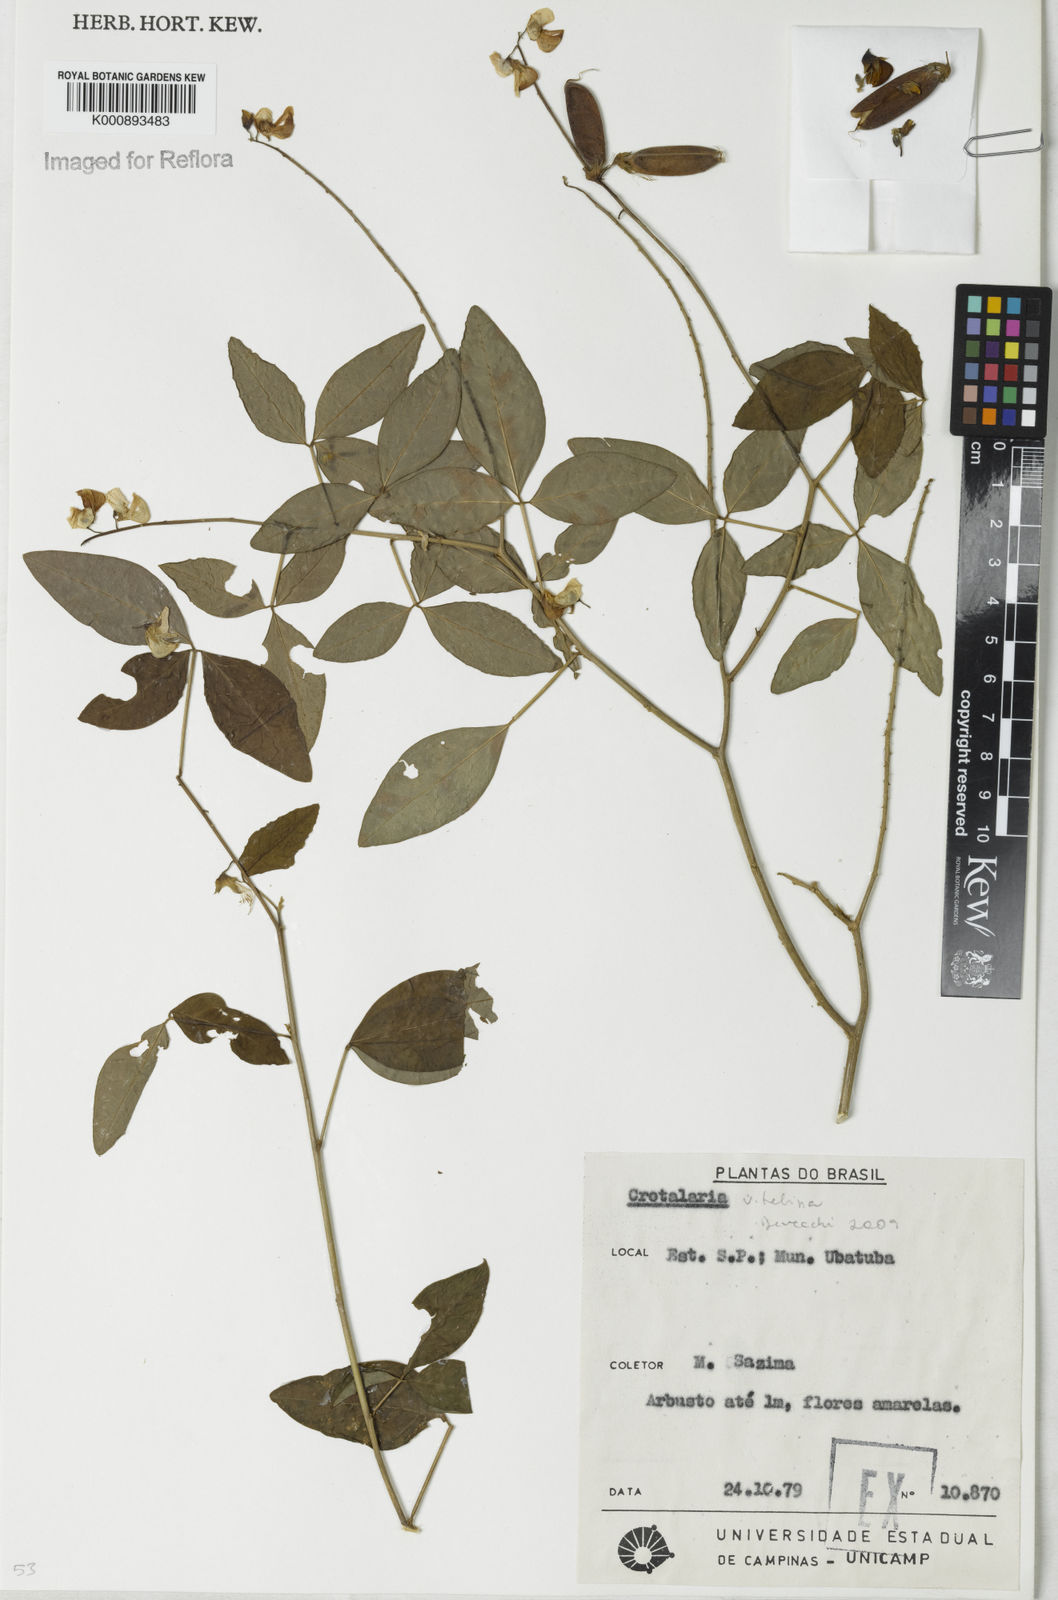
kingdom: Plantae
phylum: Tracheophyta
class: Magnoliopsida
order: Fabales
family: Fabaceae
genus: Crotalaria
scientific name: Crotalaria vitellina
